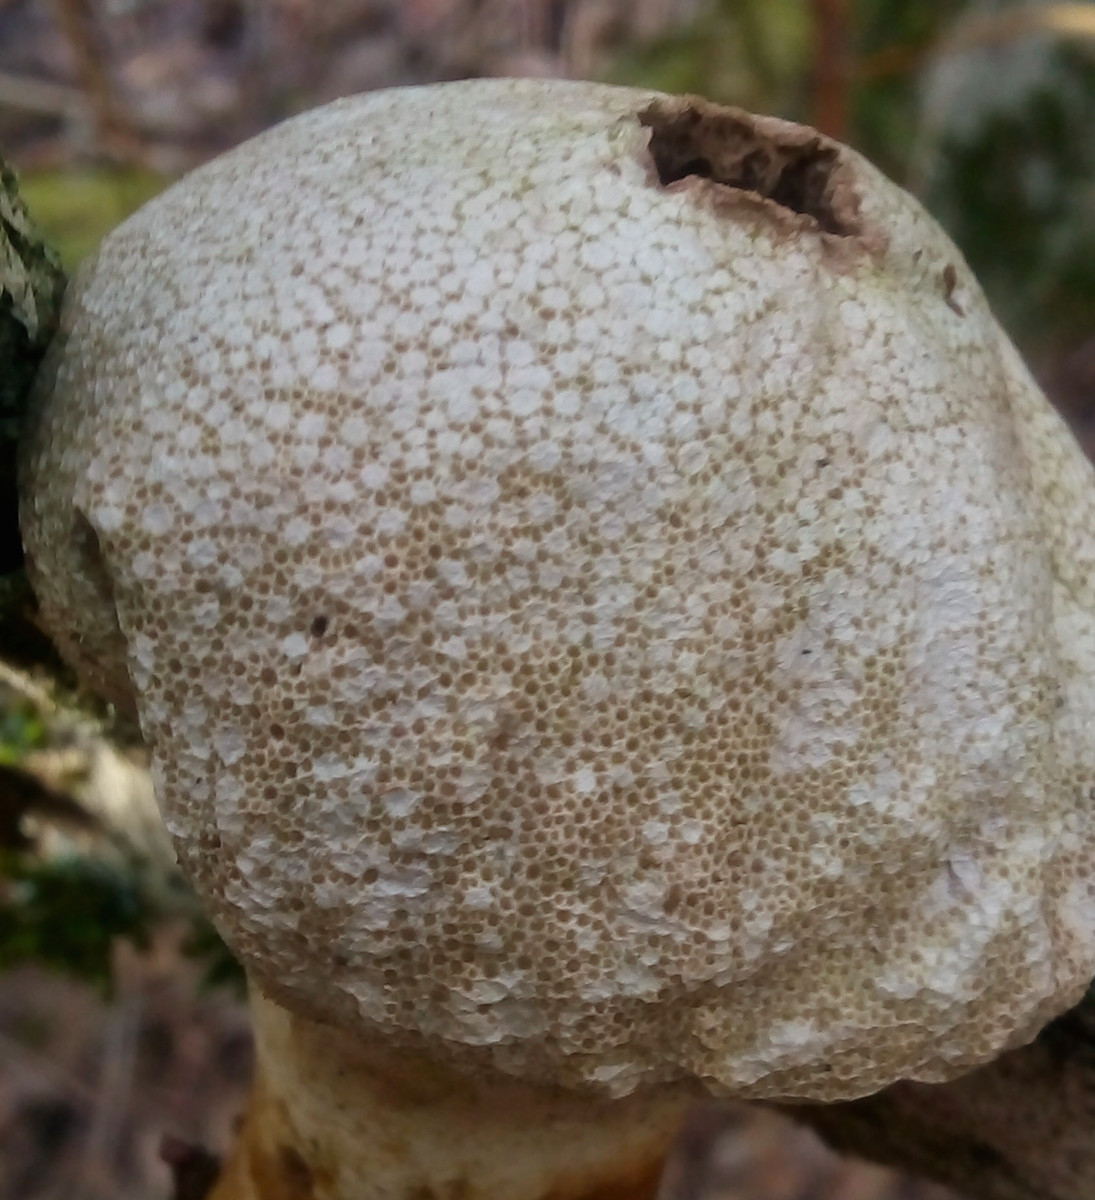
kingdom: Fungi
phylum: Basidiomycota
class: Agaricomycetes
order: Agaricales
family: Lycoperdaceae
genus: Lycoperdon
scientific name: Lycoperdon perlatum
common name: krystal-støvbold
